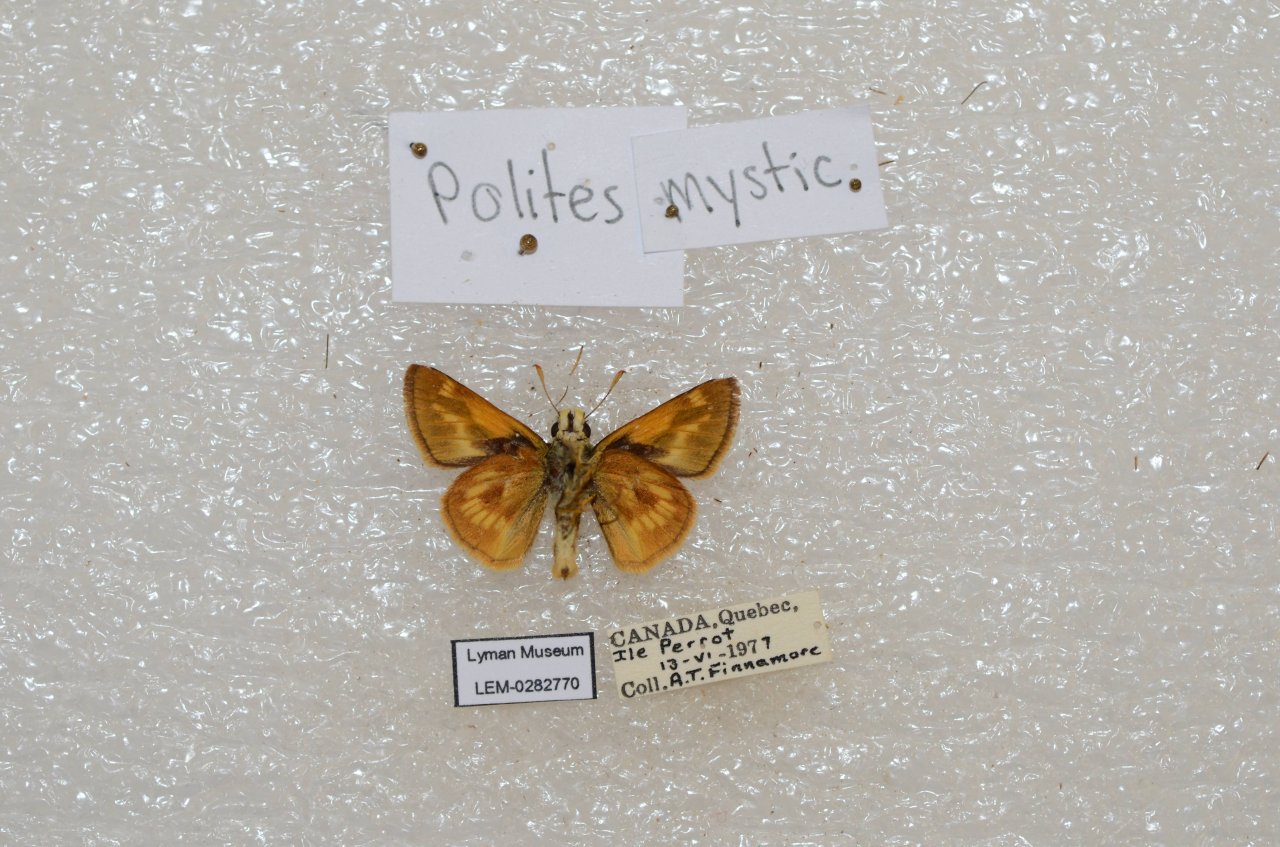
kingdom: Animalia
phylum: Arthropoda
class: Insecta
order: Lepidoptera
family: Hesperiidae
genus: Polites
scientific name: Polites
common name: Long Dash Skipper
